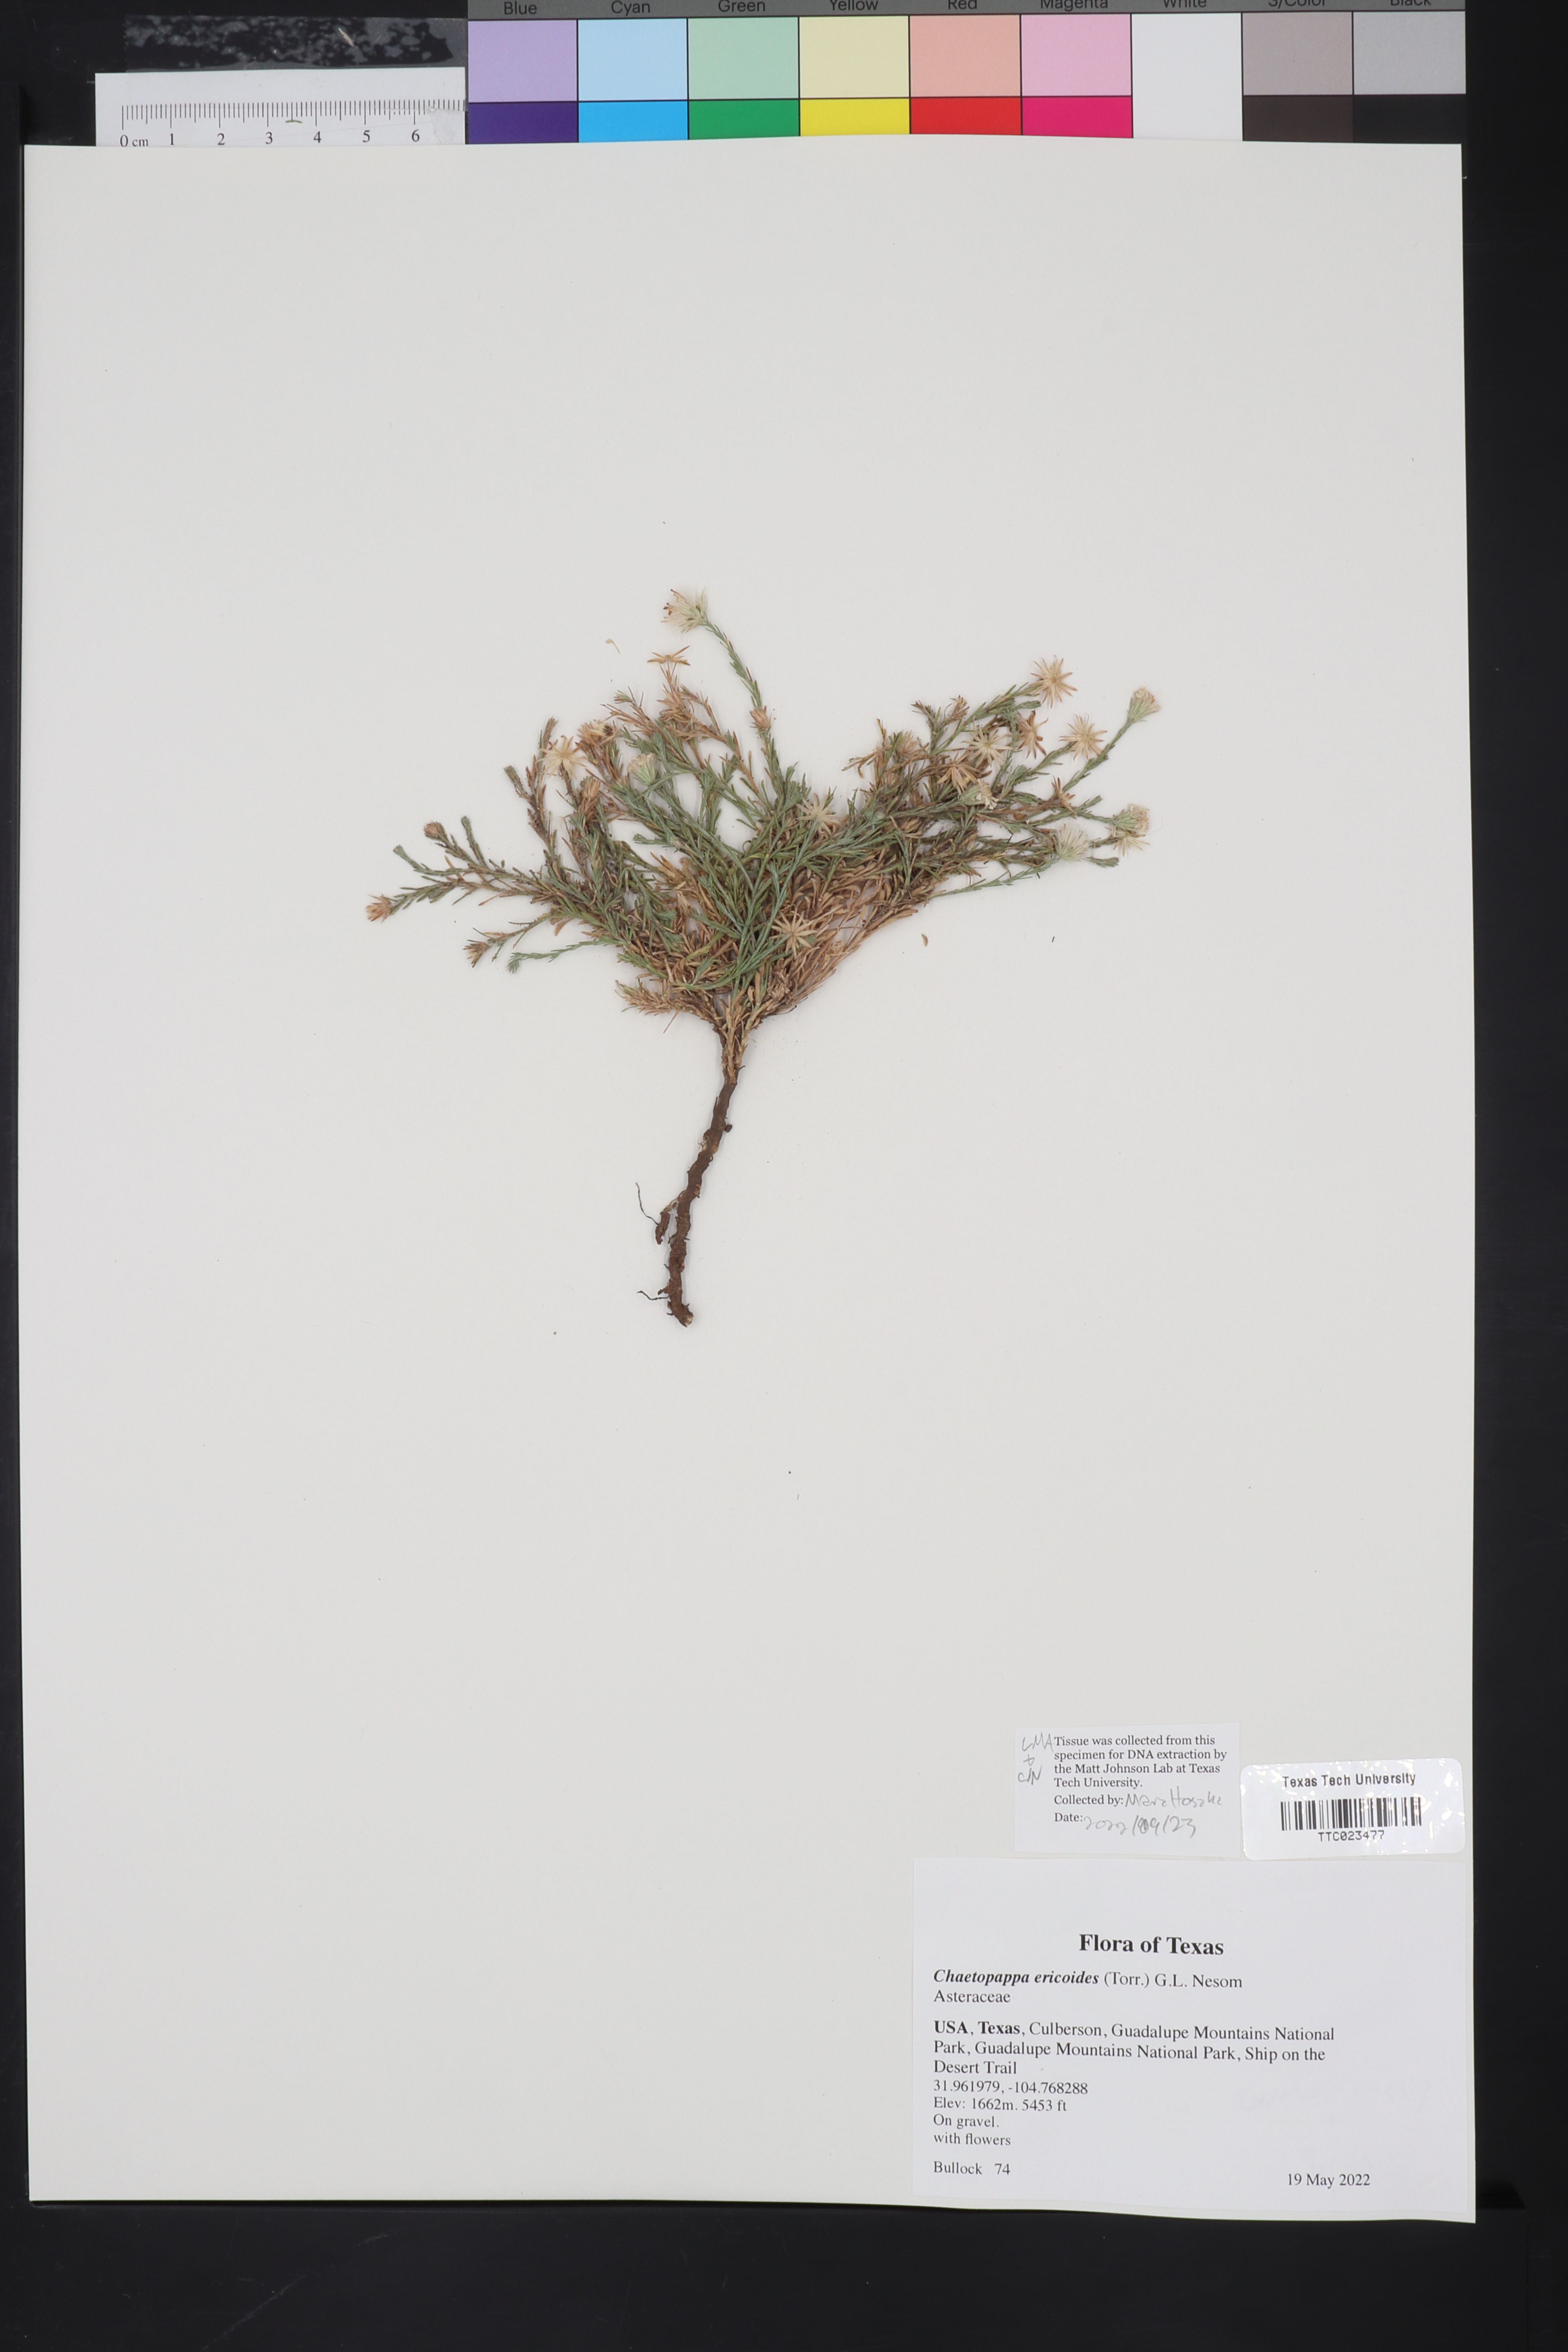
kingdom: Plantae
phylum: Tracheophyta
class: Magnoliopsida
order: Asterales
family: Asteraceae
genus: Chaetopappa
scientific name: Chaetopappa ericoides
